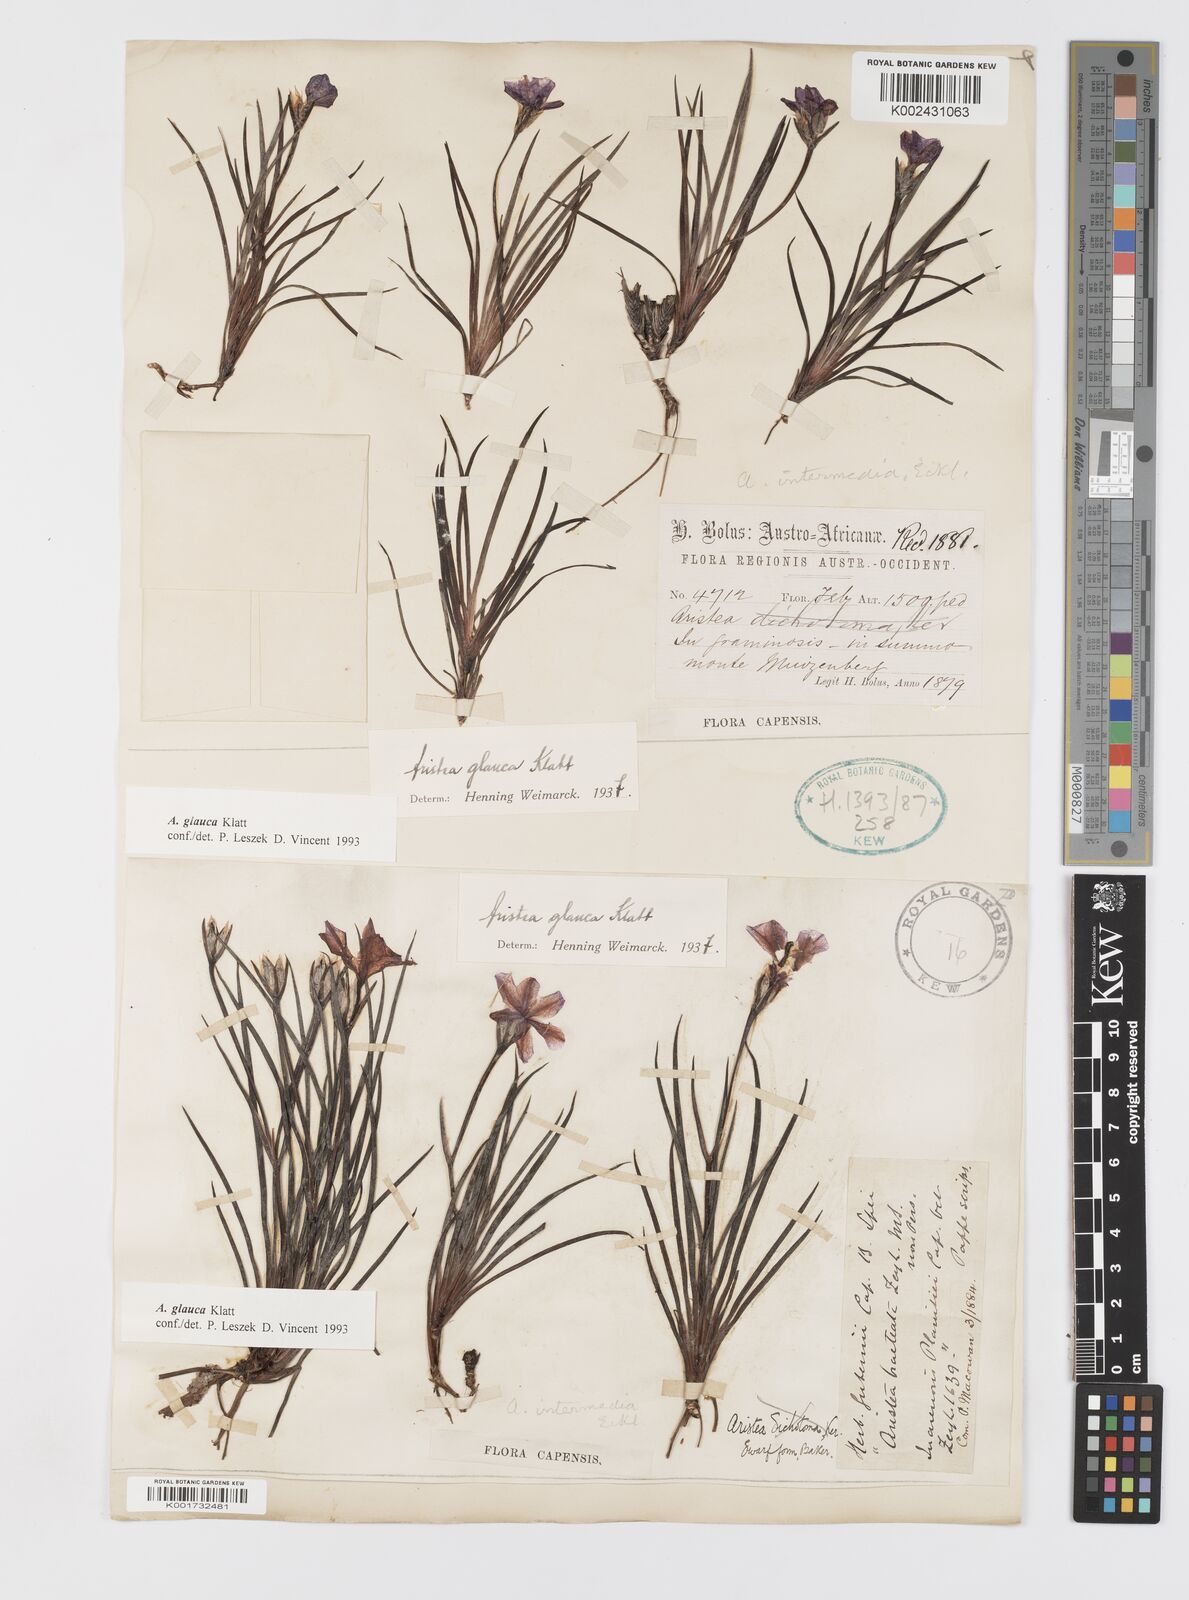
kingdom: Plantae
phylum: Tracheophyta
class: Liliopsida
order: Asparagales
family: Iridaceae
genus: Aristea
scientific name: Aristea glauca
